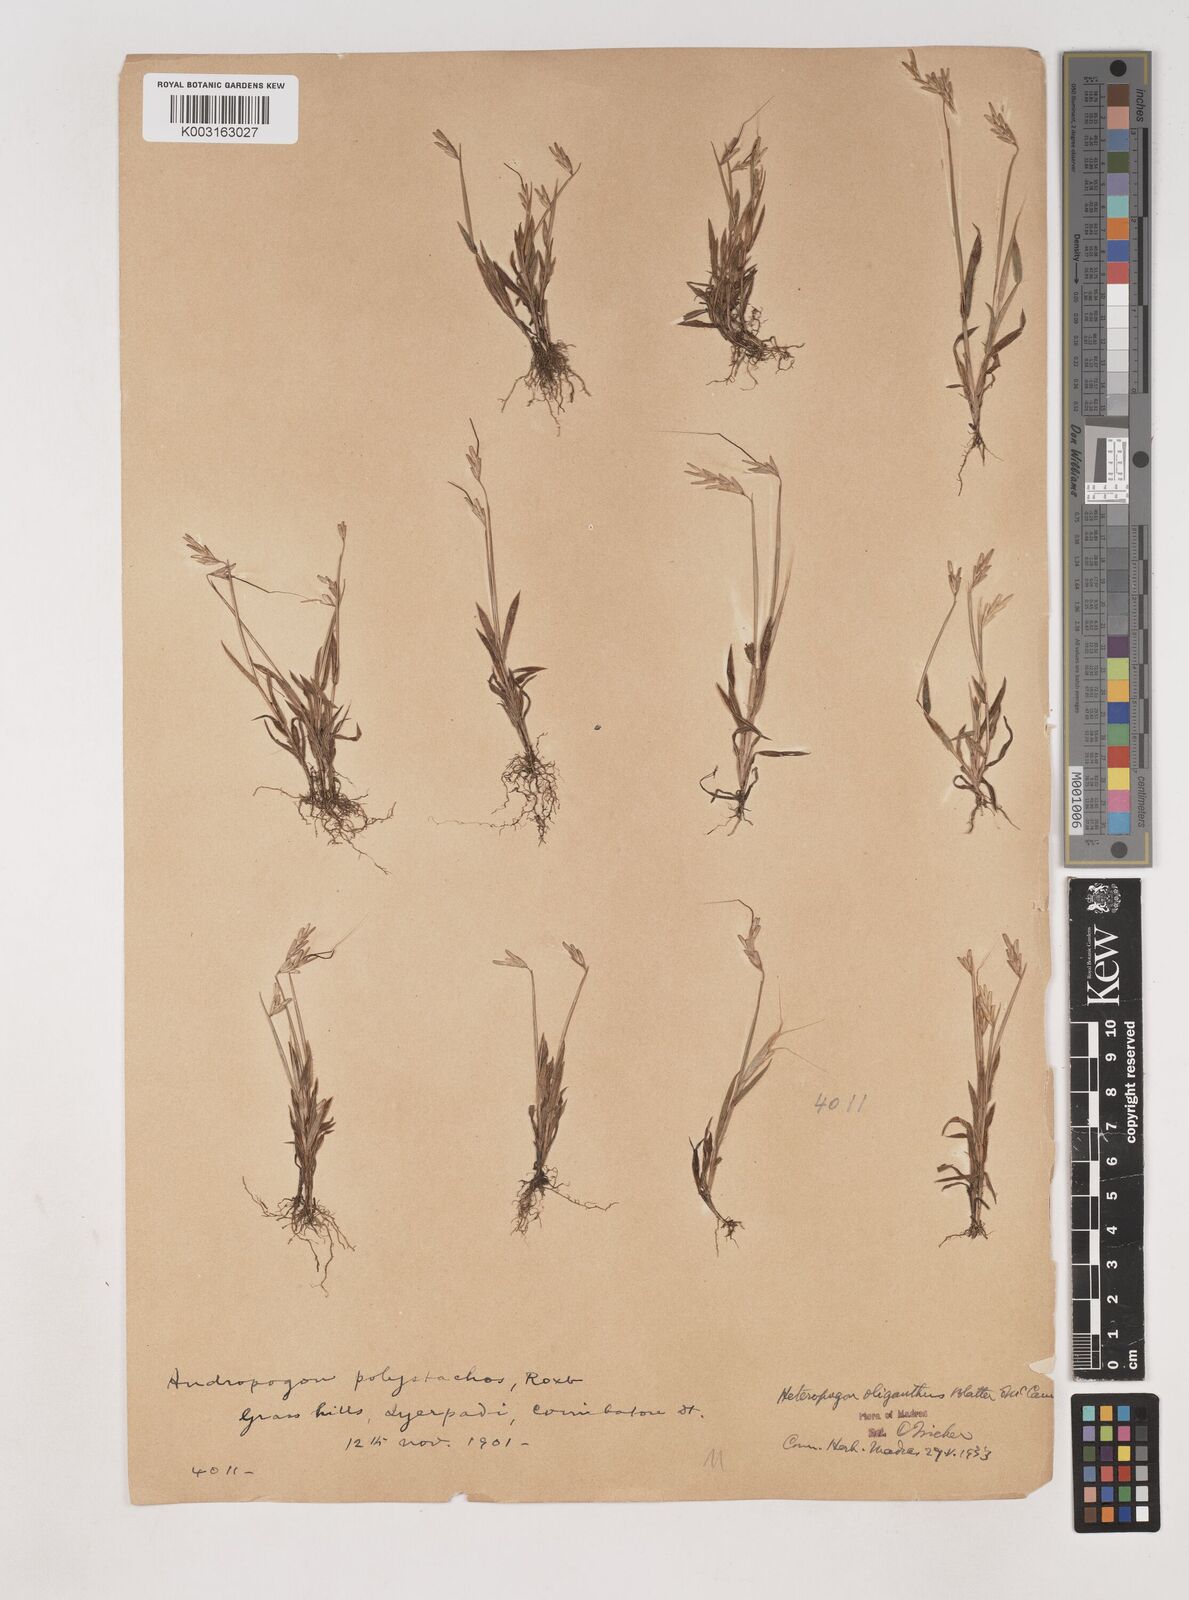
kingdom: Plantae
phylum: Tracheophyta
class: Liliopsida
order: Poales
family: Poaceae
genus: Euclasta
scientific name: Euclasta oligantha
